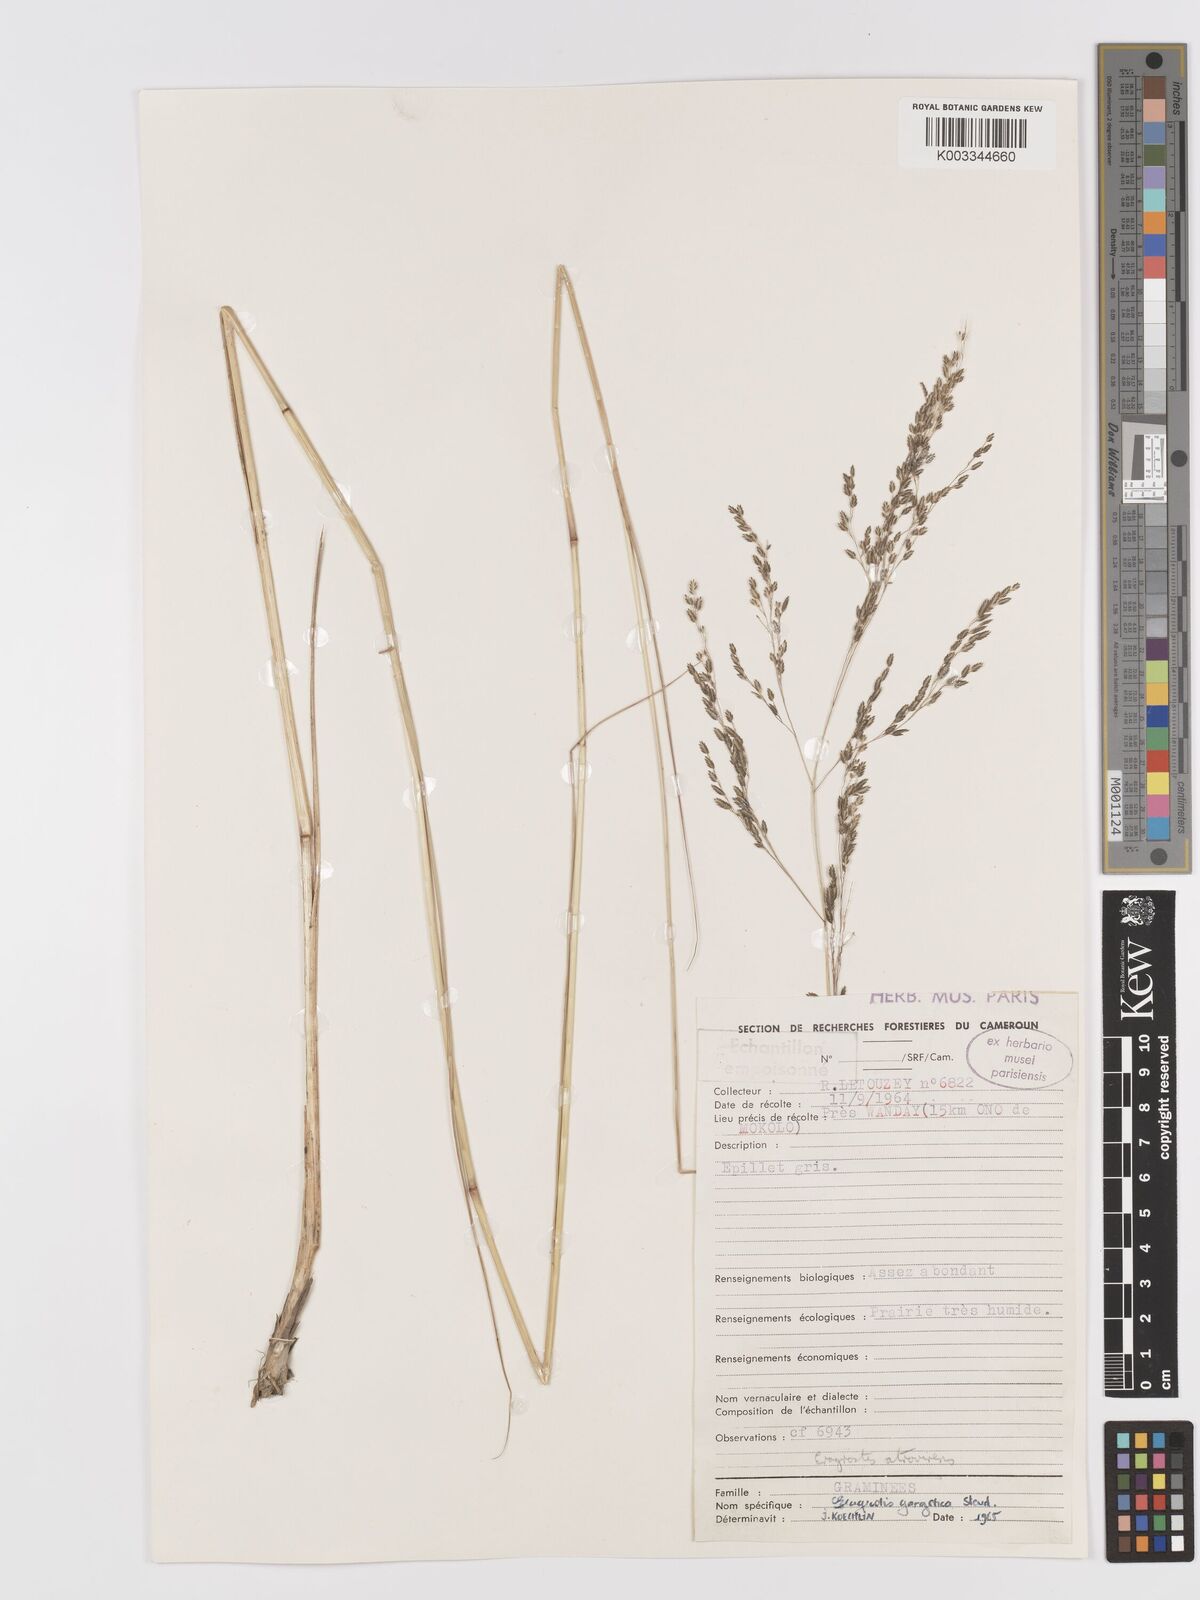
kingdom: Plantae
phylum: Tracheophyta
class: Liliopsida
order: Poales
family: Poaceae
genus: Eragrostis
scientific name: Eragrostis atrovirens
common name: Thalia lovegrass
